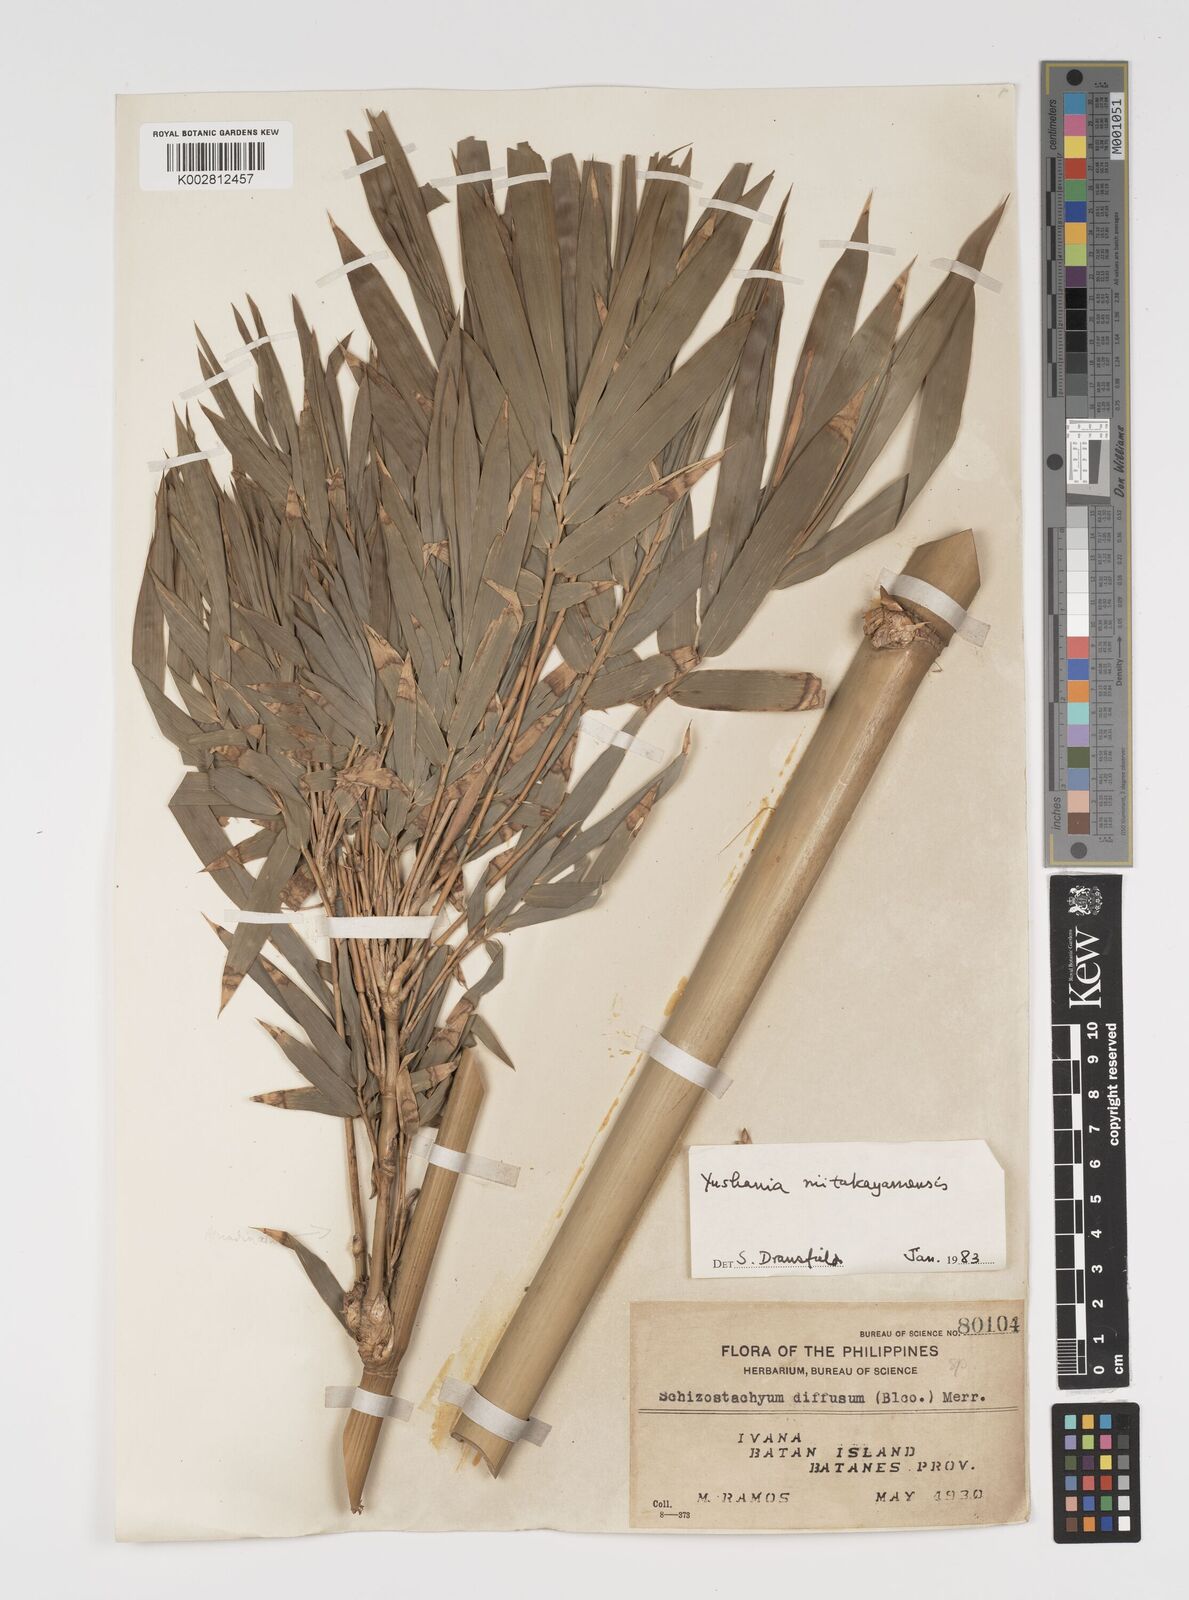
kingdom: Plantae
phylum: Tracheophyta
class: Liliopsida
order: Poales
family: Poaceae
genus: Yushania
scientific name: Yushania niitakayamensis
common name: Yushan cane
